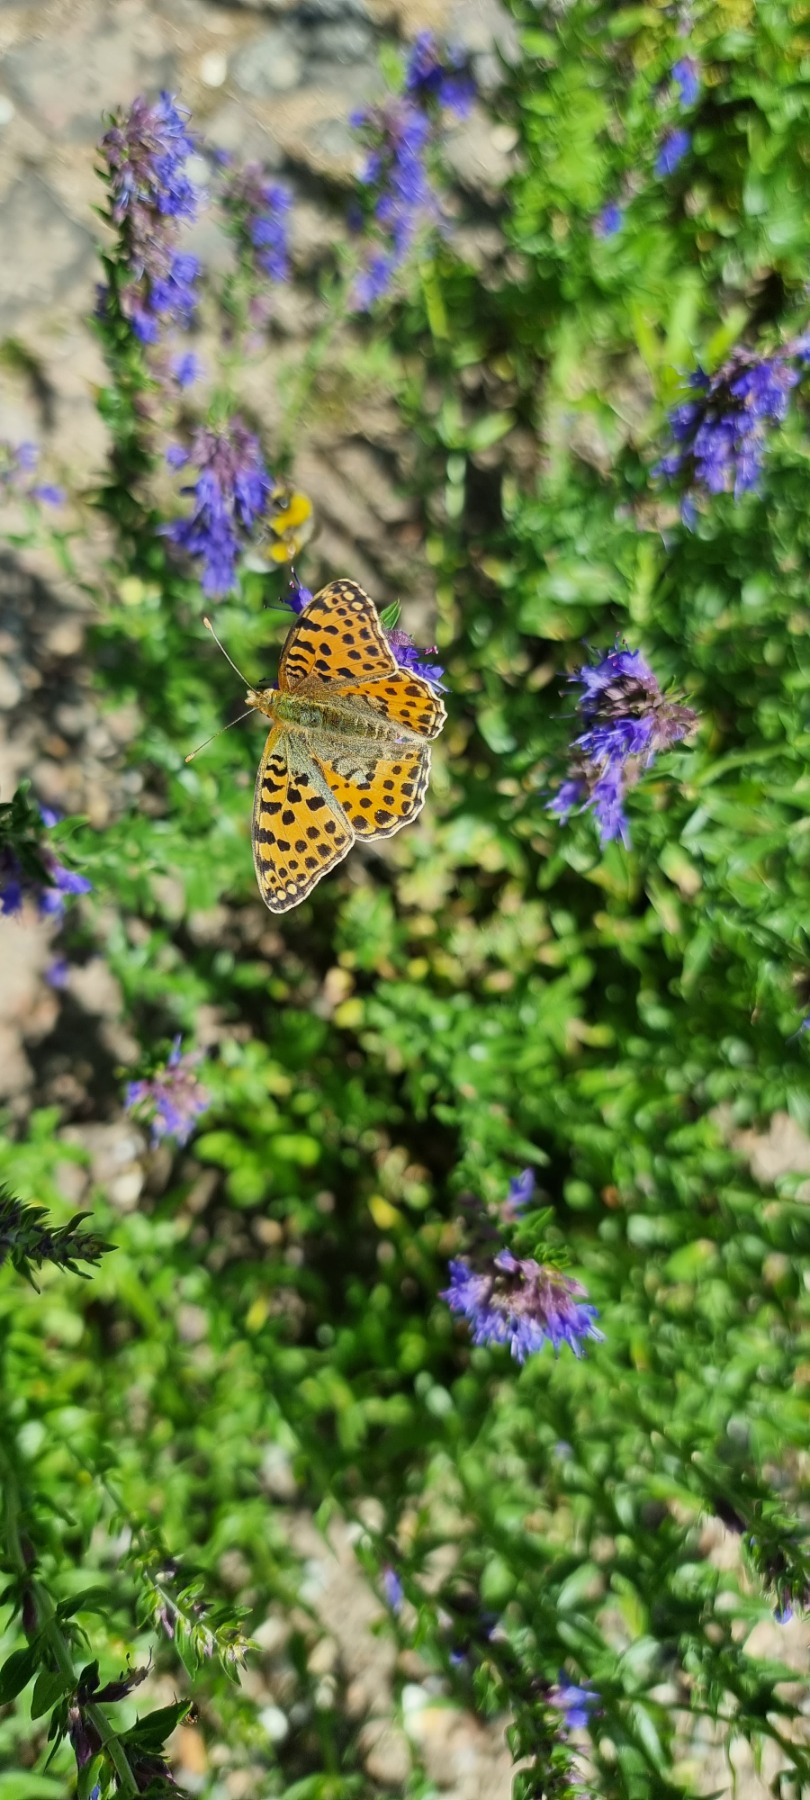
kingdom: Animalia
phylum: Arthropoda
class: Insecta
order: Lepidoptera
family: Nymphalidae
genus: Issoria
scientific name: Issoria lathonia
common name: Storplettet perlemorsommerfugl
